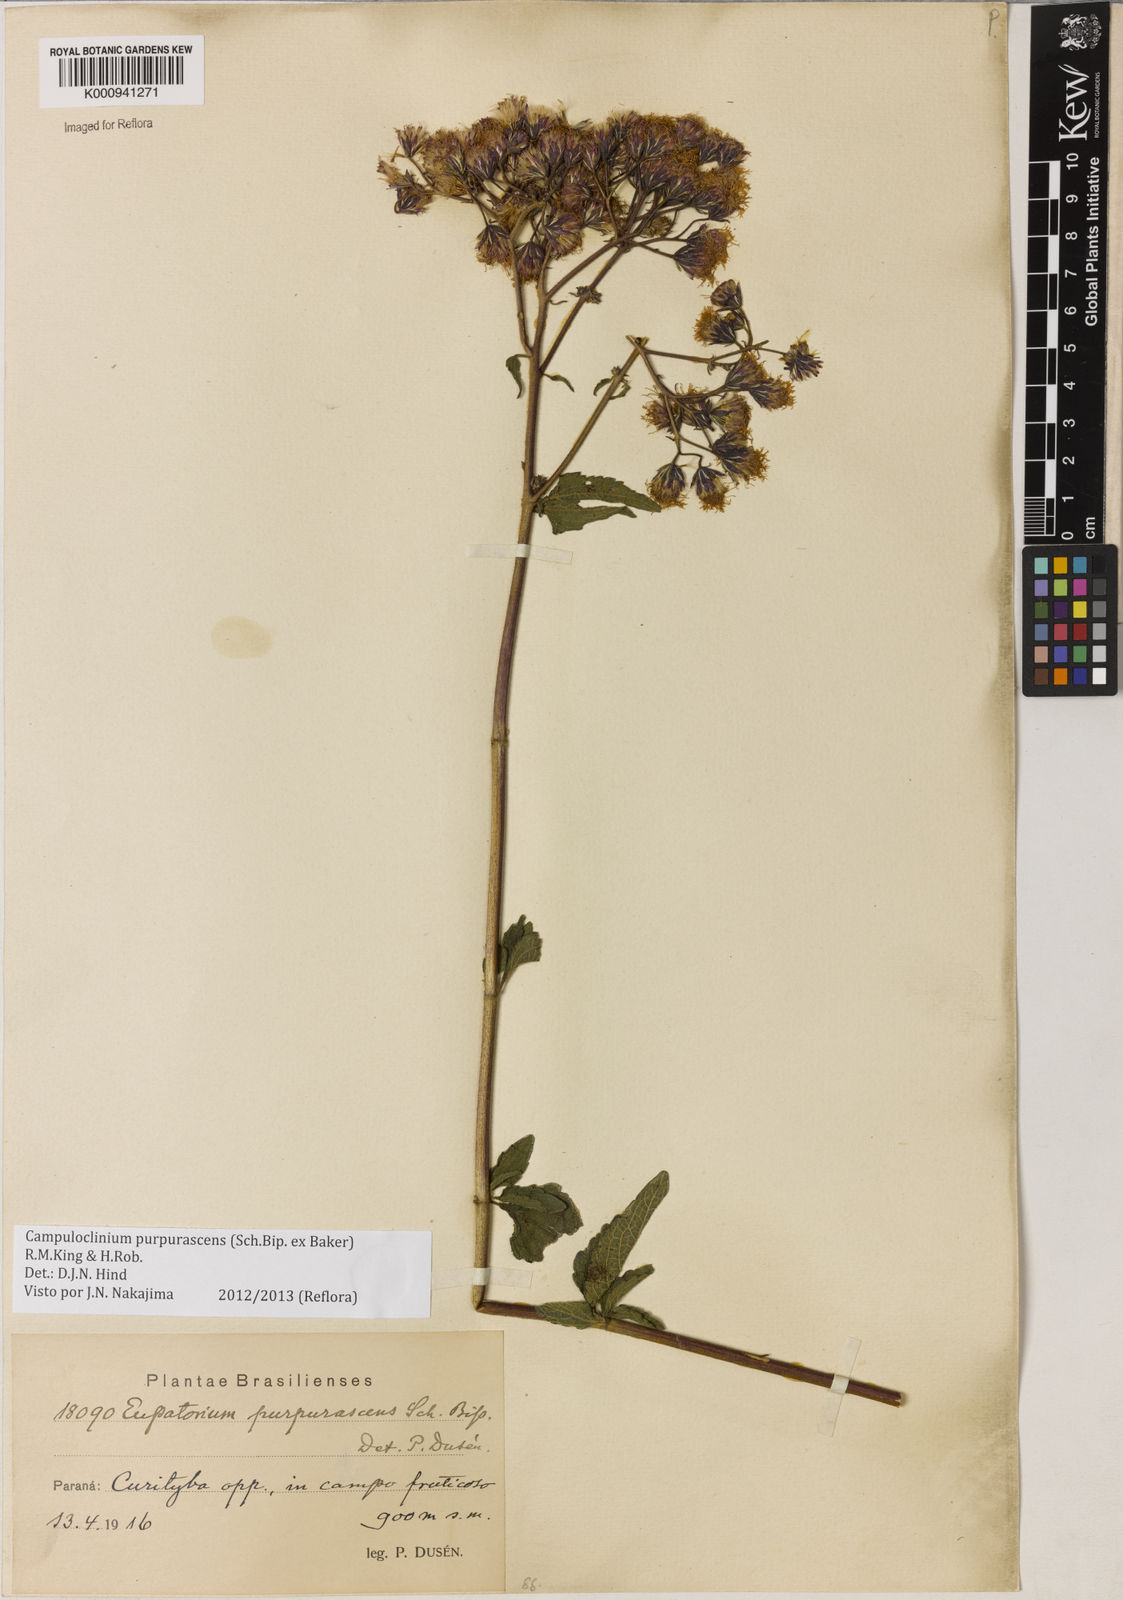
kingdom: Plantae
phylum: Tracheophyta
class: Magnoliopsida
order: Asterales
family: Asteraceae
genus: Campuloclinium
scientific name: Campuloclinium purpurascens
